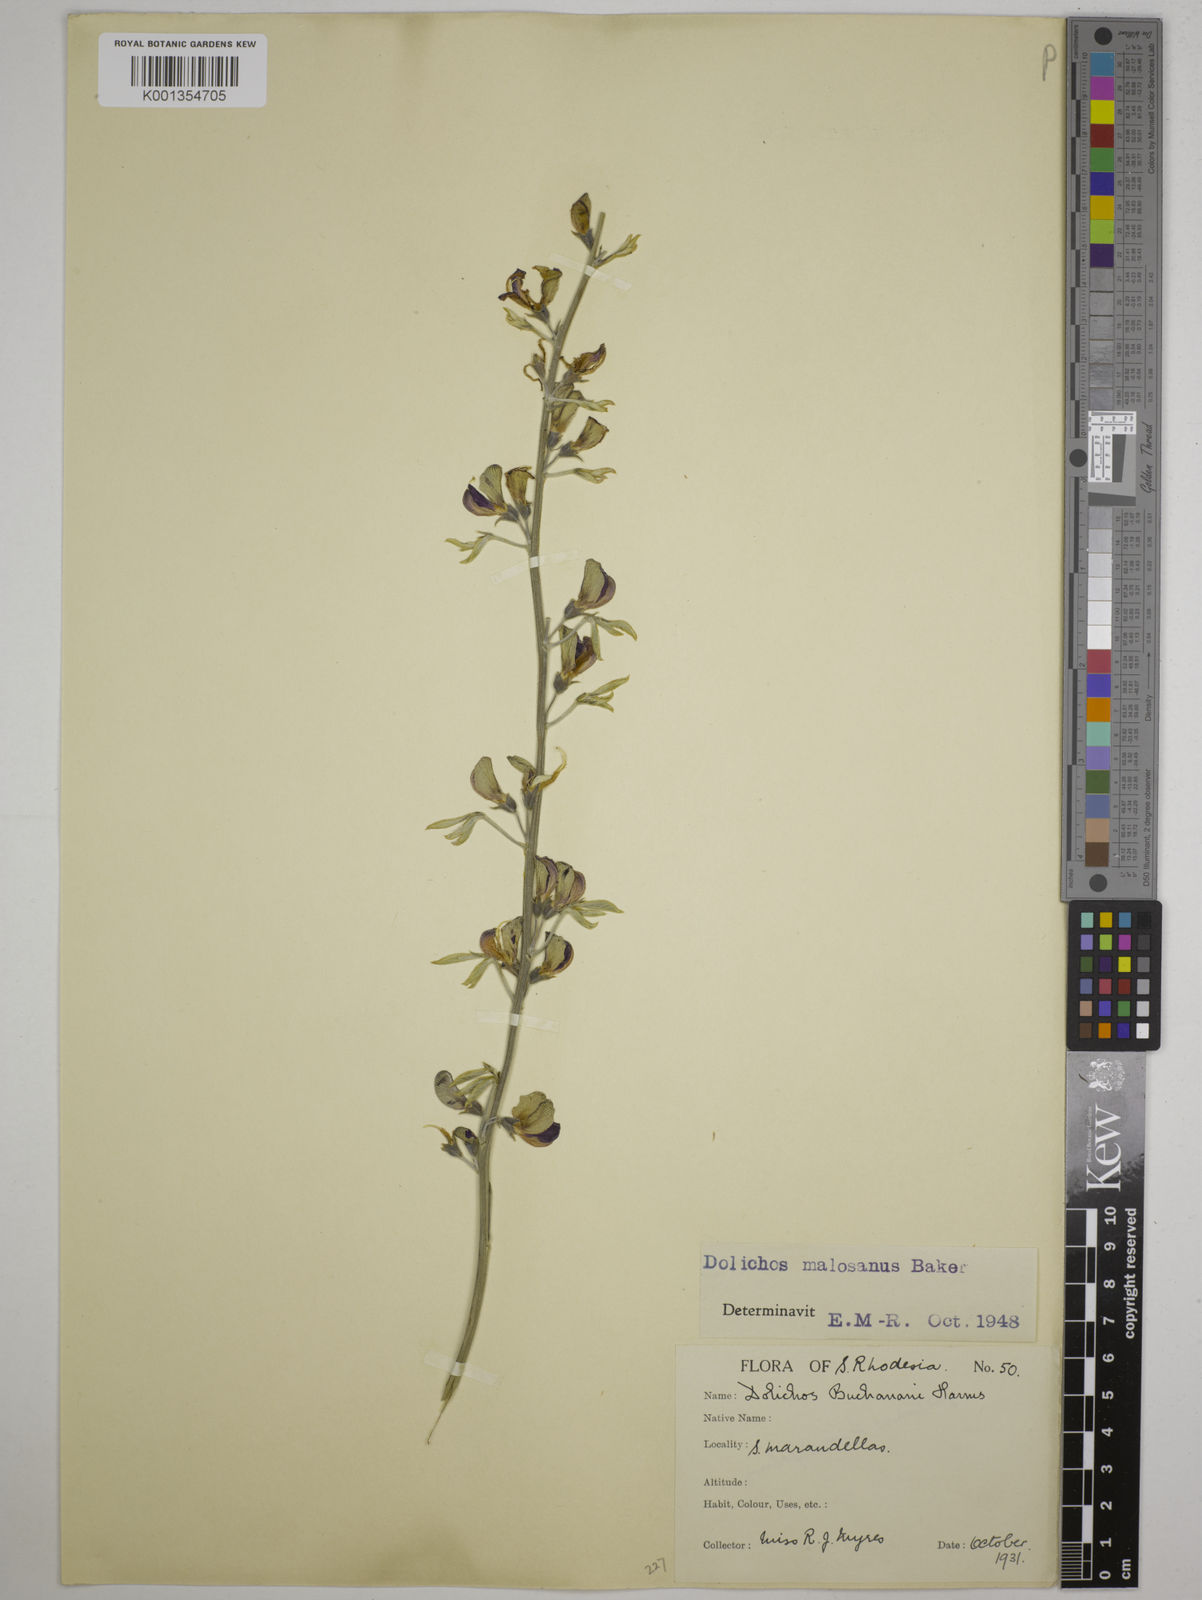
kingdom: Plantae
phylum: Tracheophyta
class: Magnoliopsida
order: Fabales
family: Fabaceae
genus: Dolichos
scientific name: Dolichos kilimandscharicus
